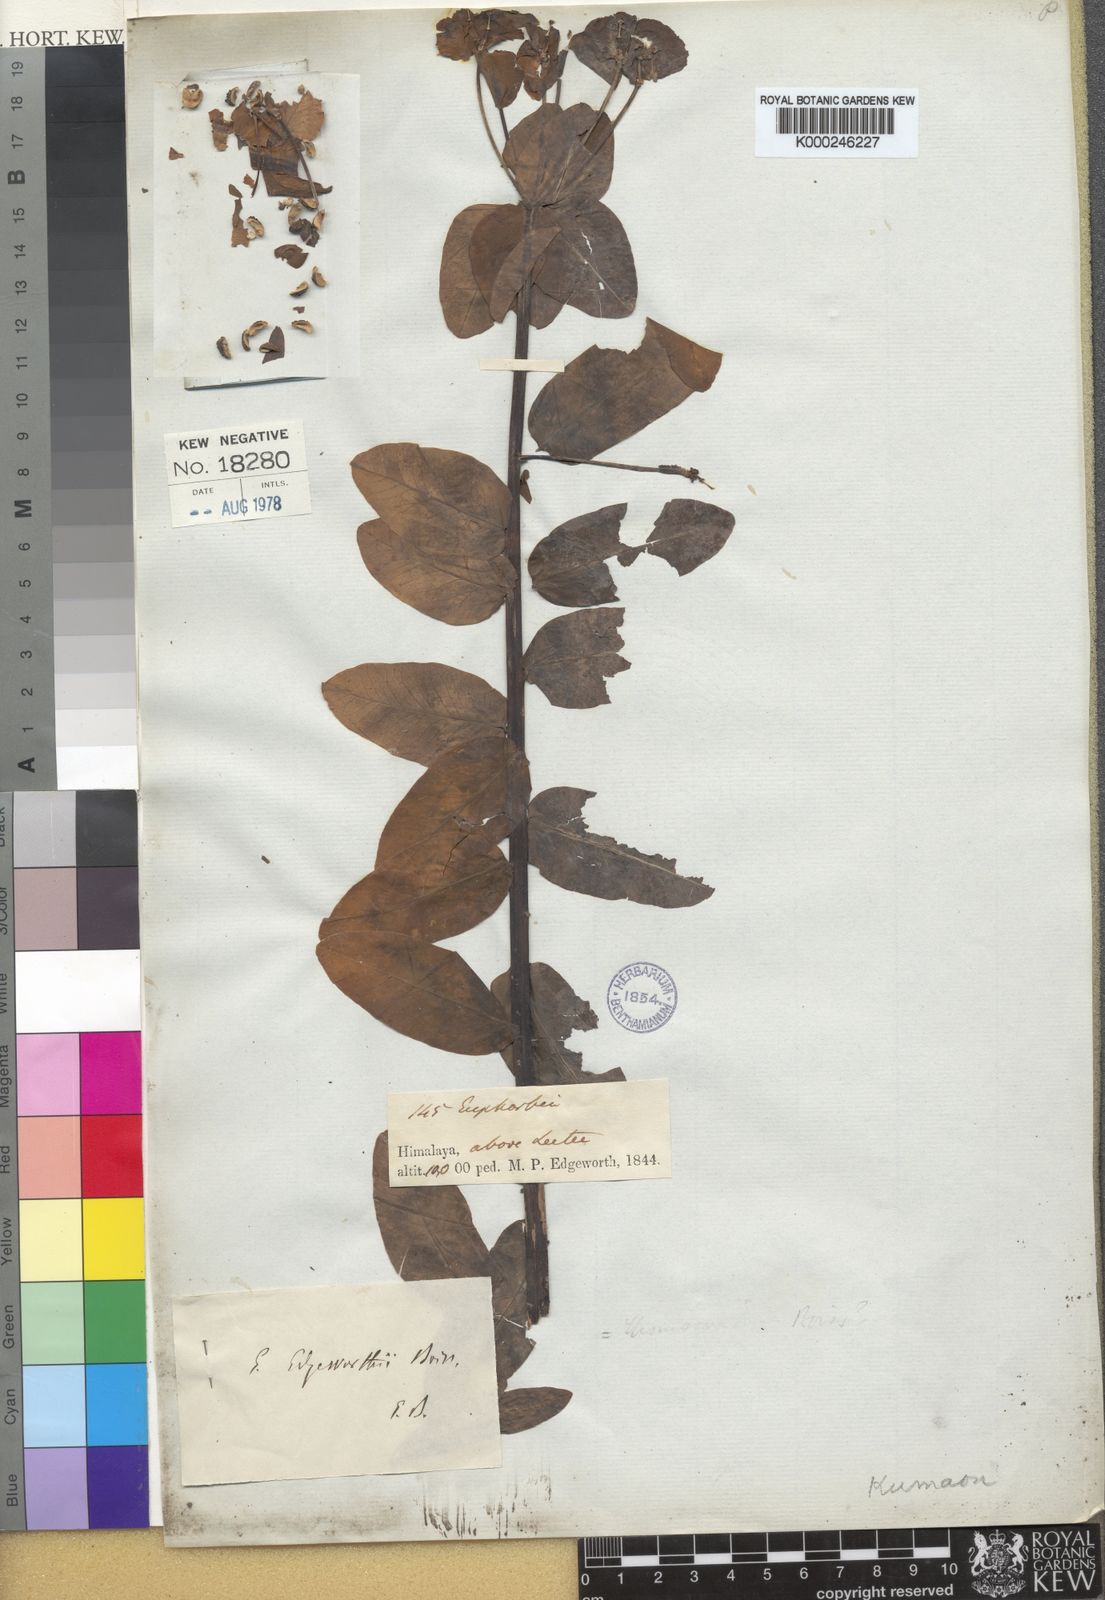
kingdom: Plantae
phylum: Tracheophyta
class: Magnoliopsida
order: Malpighiales
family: Euphorbiaceae
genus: Euphorbia
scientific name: Euphorbia cashmeriana
